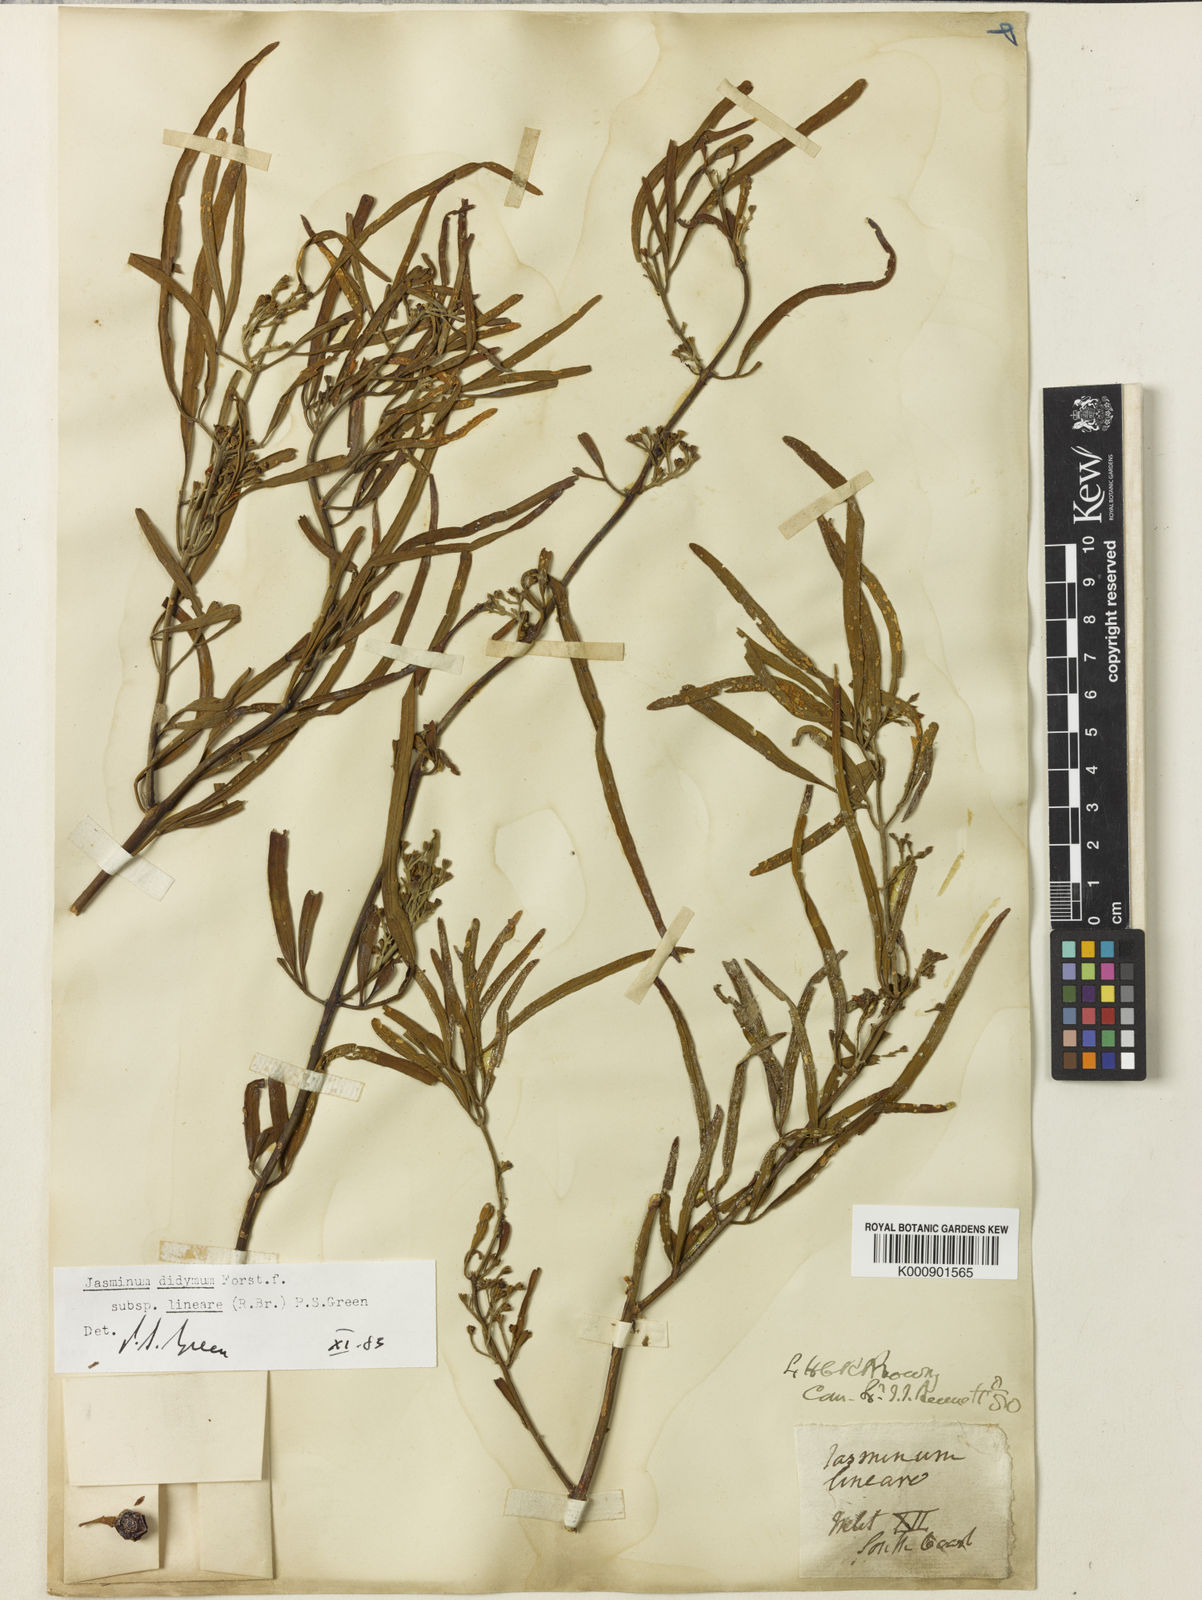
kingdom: Plantae
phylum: Tracheophyta
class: Magnoliopsida
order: Lamiales
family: Oleaceae
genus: Jasminum
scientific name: Jasminum didymum
